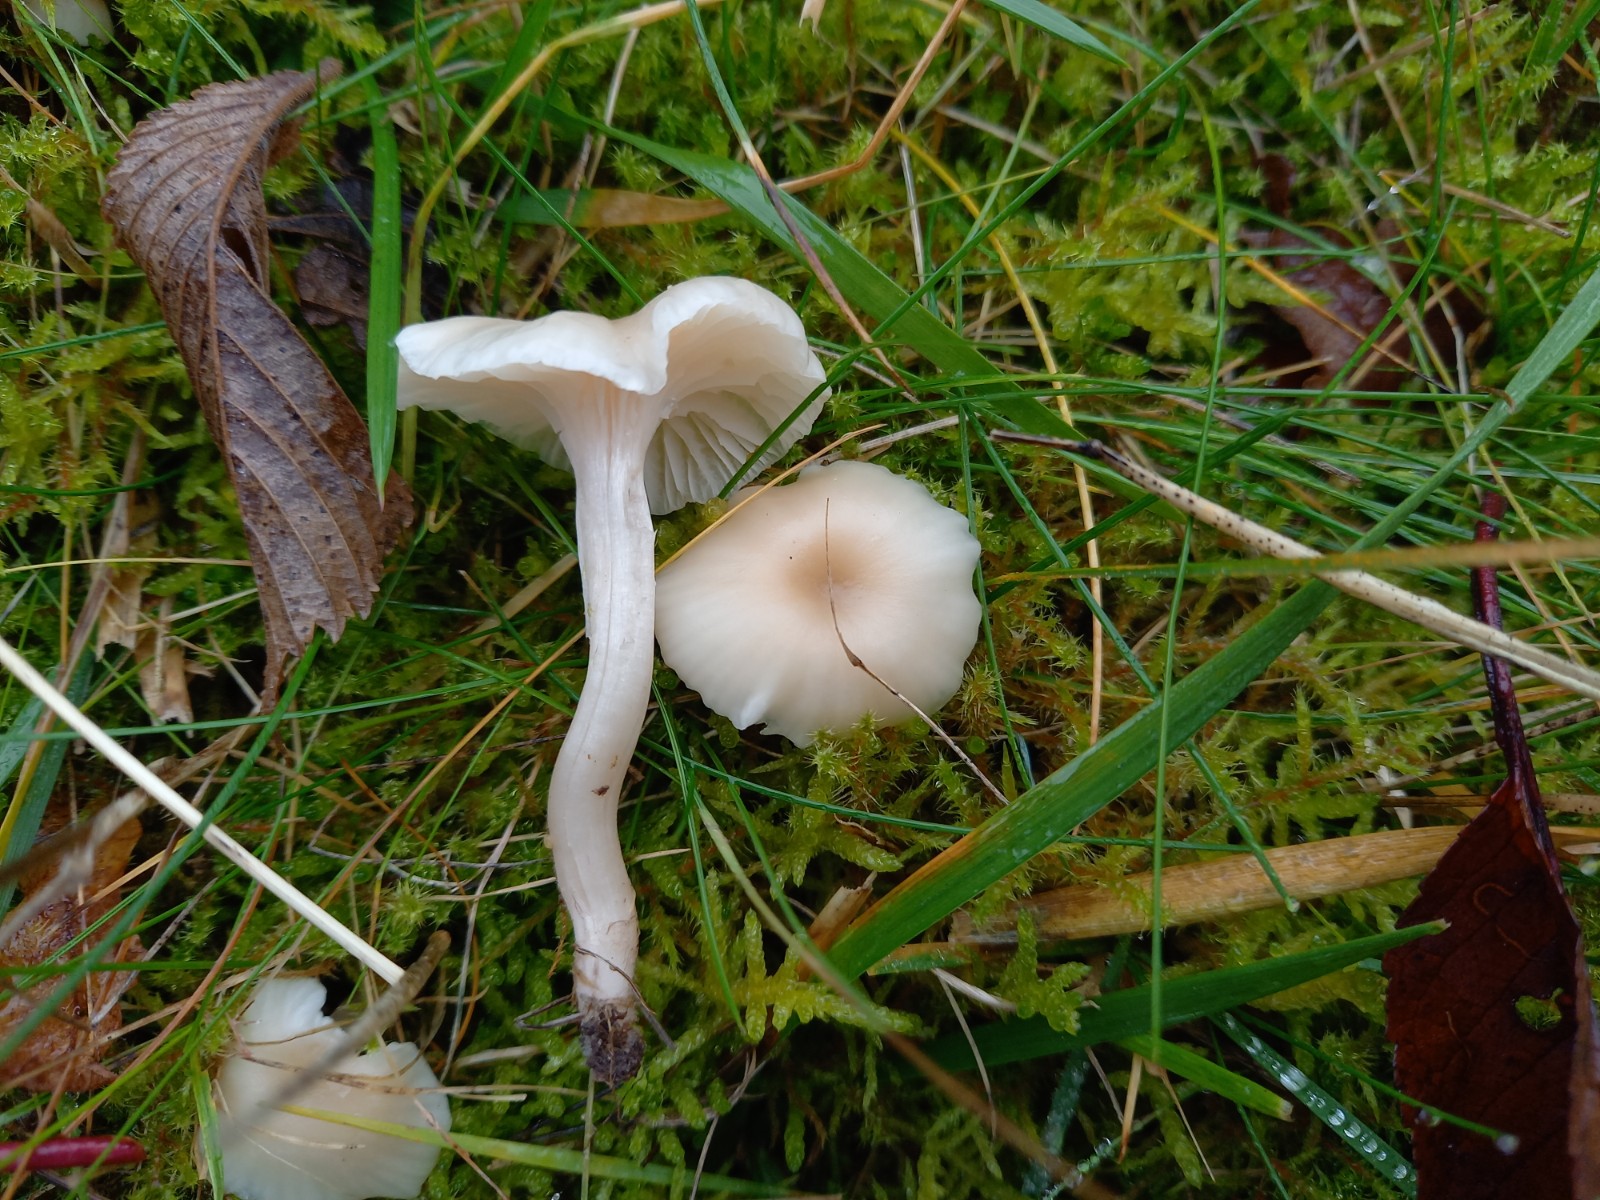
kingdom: Fungi
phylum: Basidiomycota
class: Agaricomycetes
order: Agaricales
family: Hygrophoraceae
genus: Cuphophyllus
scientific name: Cuphophyllus
